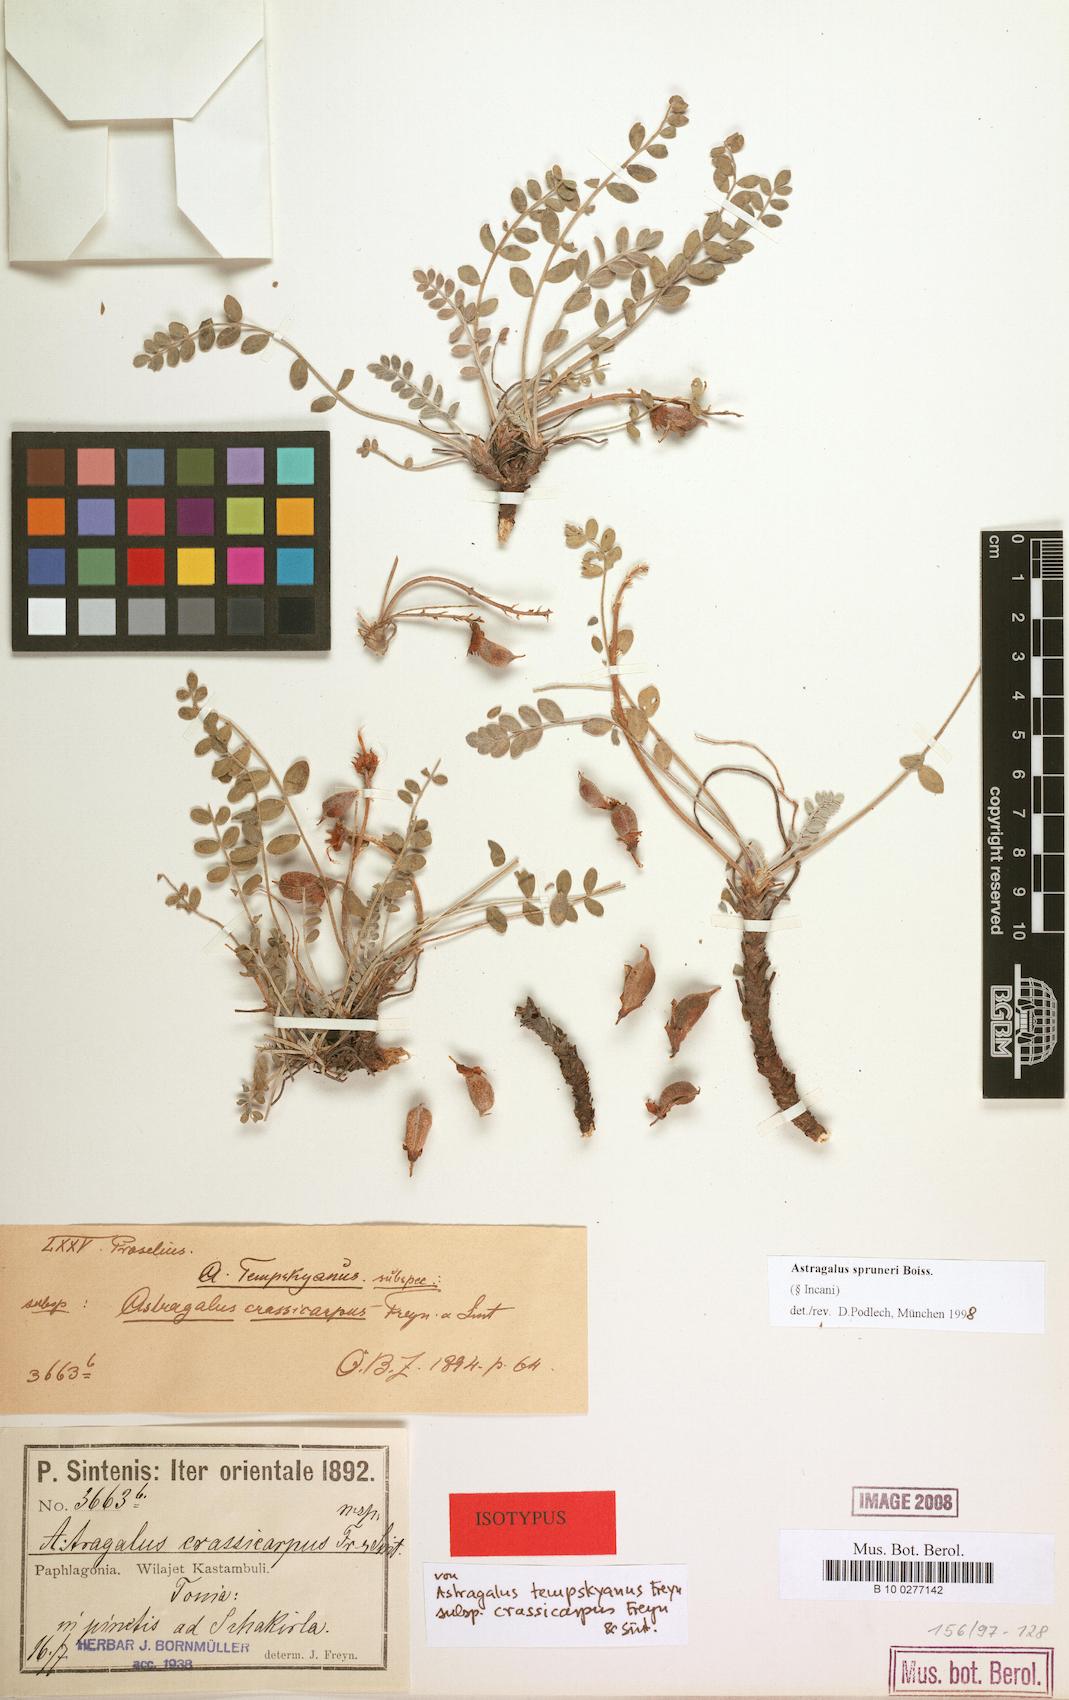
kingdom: Plantae
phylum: Tracheophyta
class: Magnoliopsida
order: Fabales
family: Fabaceae
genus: Astragalus
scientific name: Astragalus spruneri
